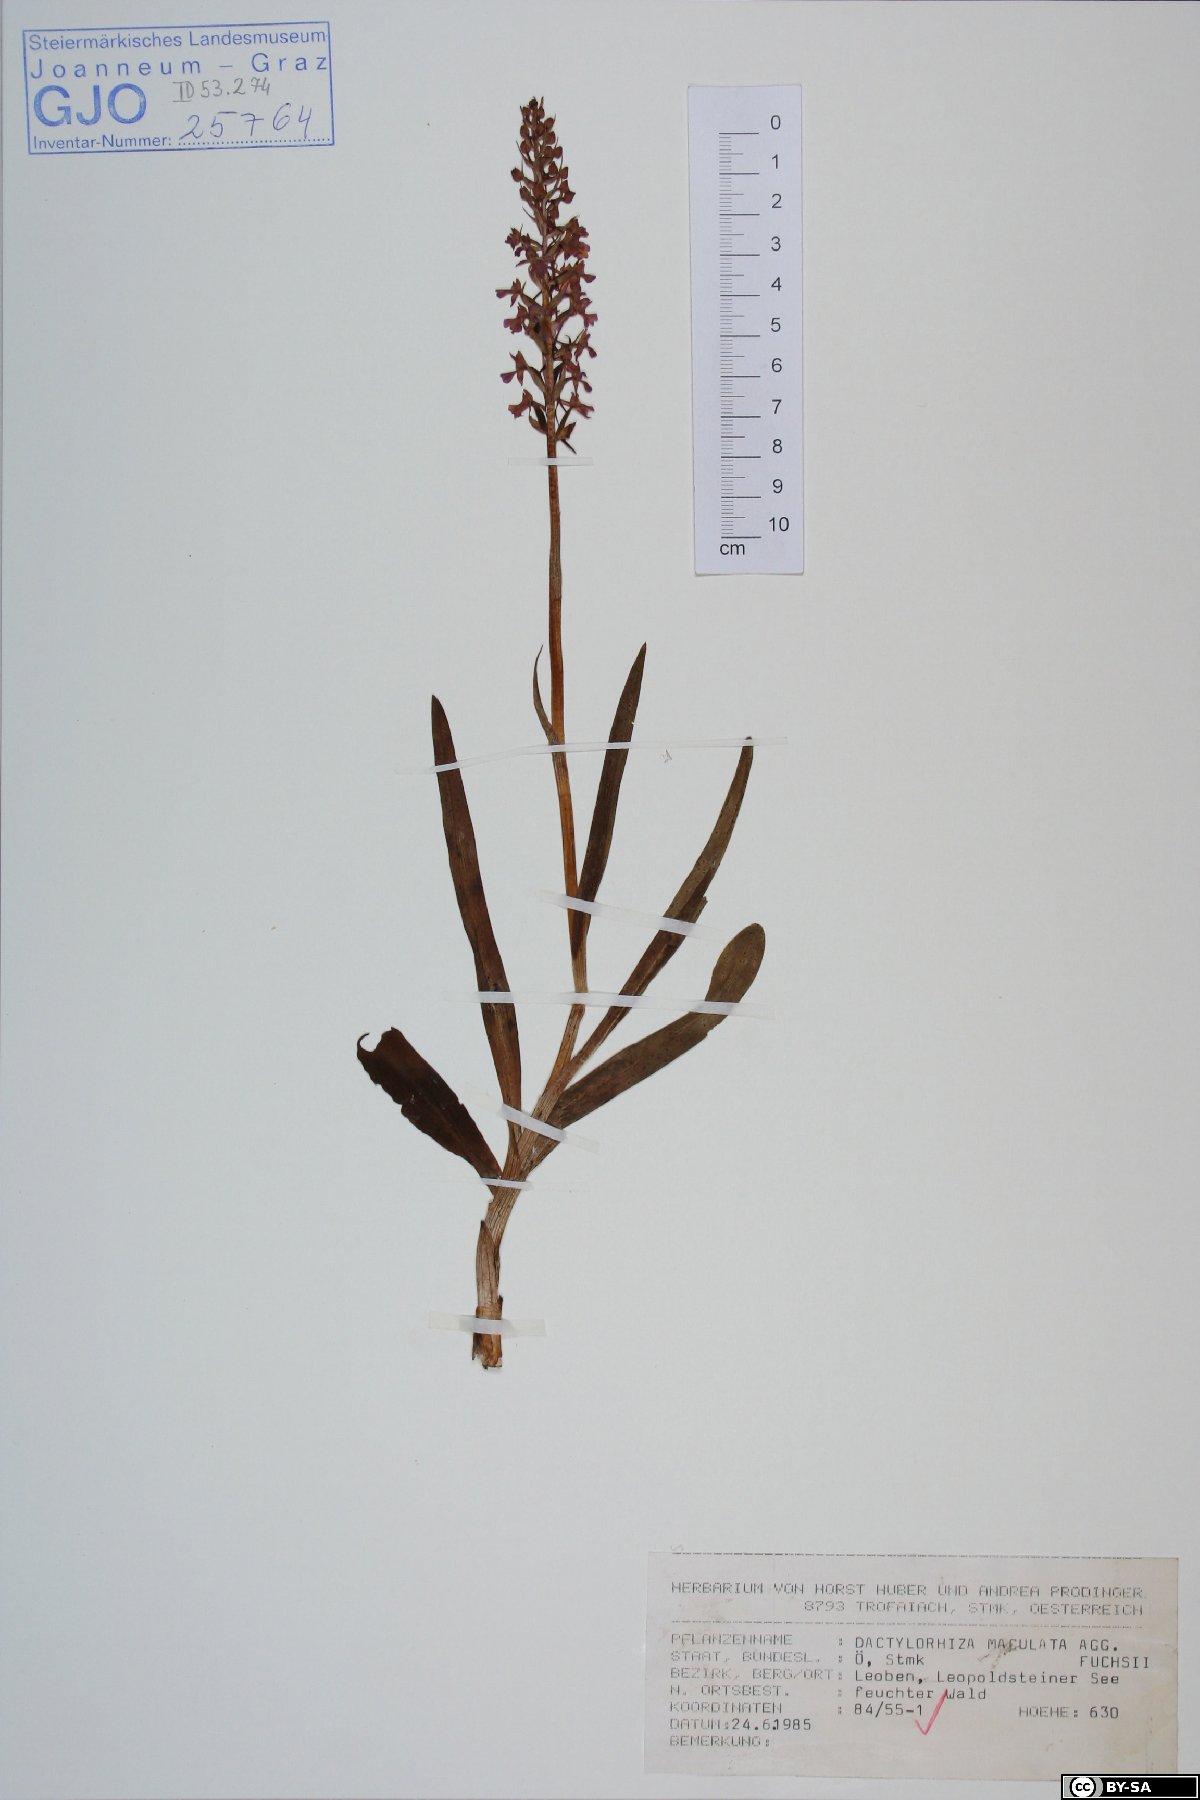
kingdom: Plantae
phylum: Tracheophyta
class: Liliopsida
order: Asparagales
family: Orchidaceae
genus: Dactylorhiza
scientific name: Dactylorhiza maculata
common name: Heath spotted-orchid
